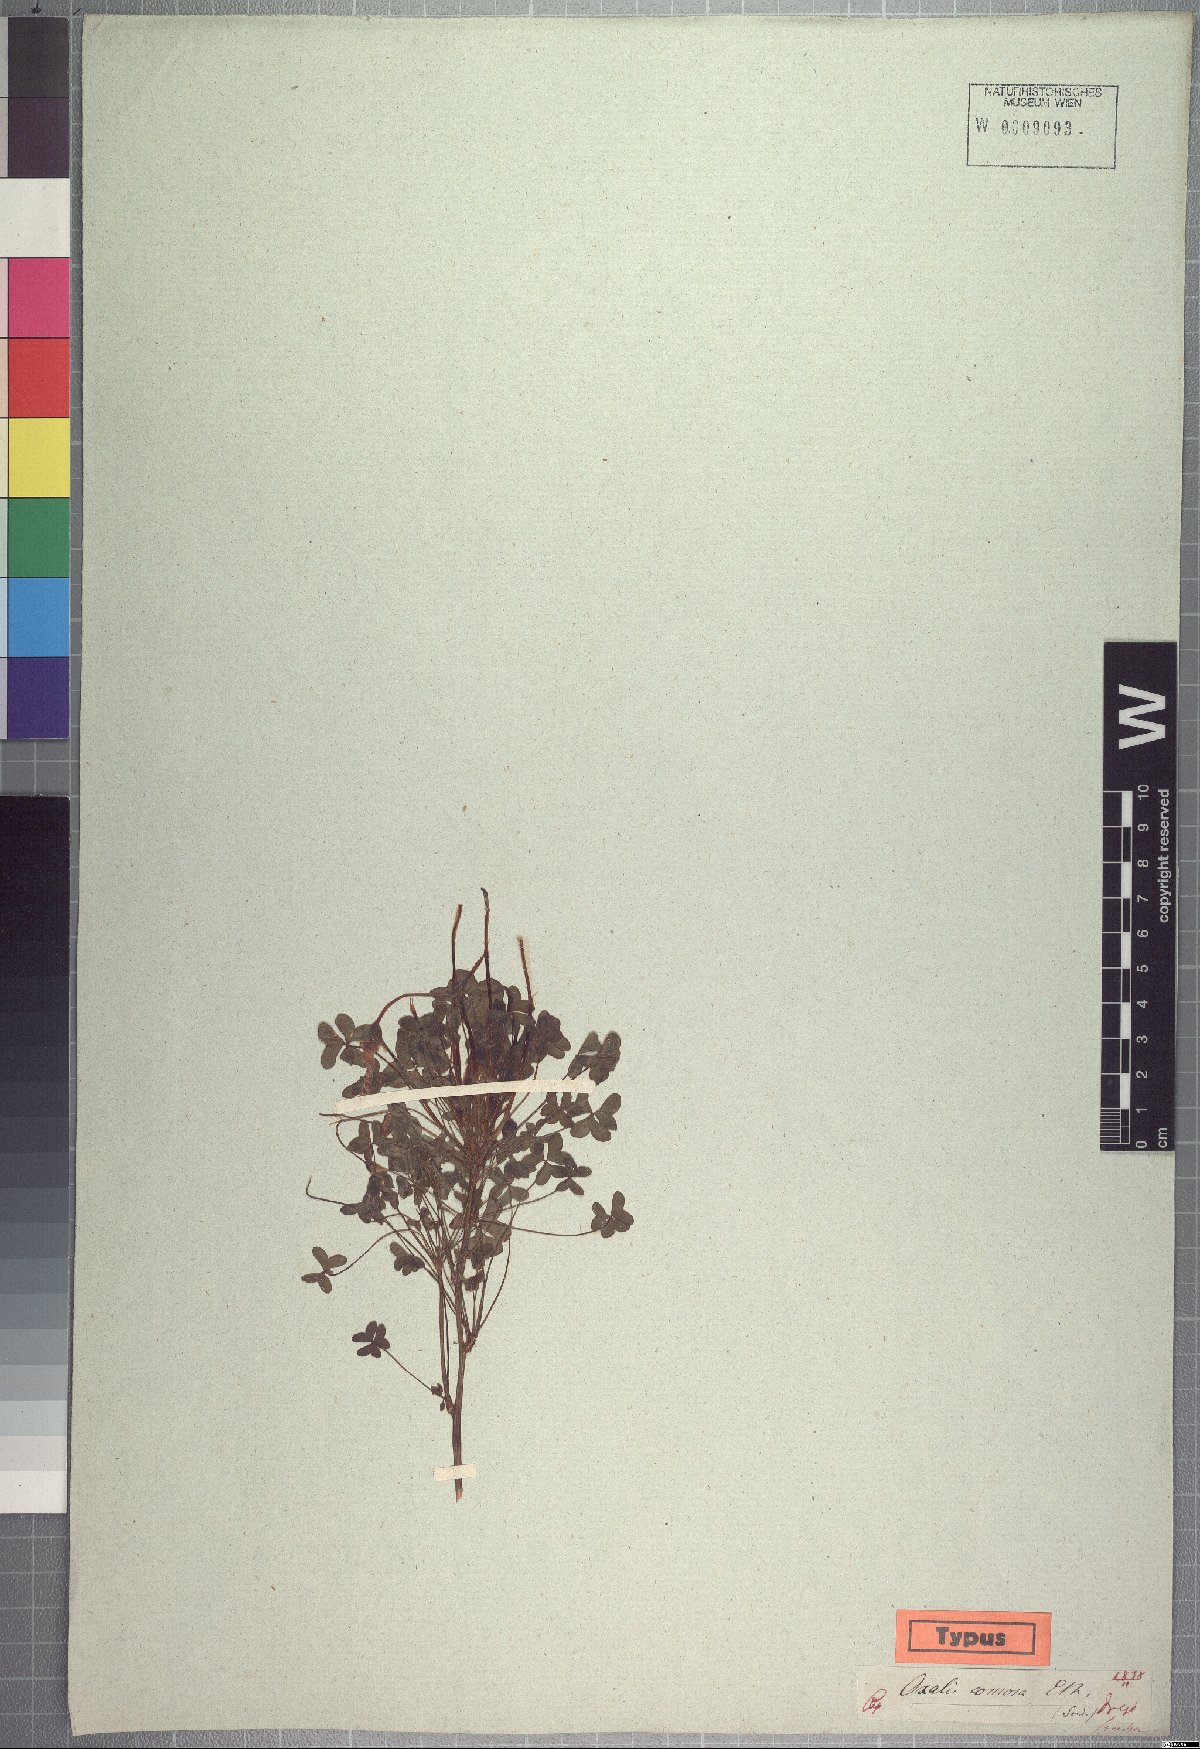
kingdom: Plantae
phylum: Tracheophyta
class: Magnoliopsida
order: Oxalidales
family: Oxalidaceae
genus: Oxalis
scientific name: Oxalis comosa
